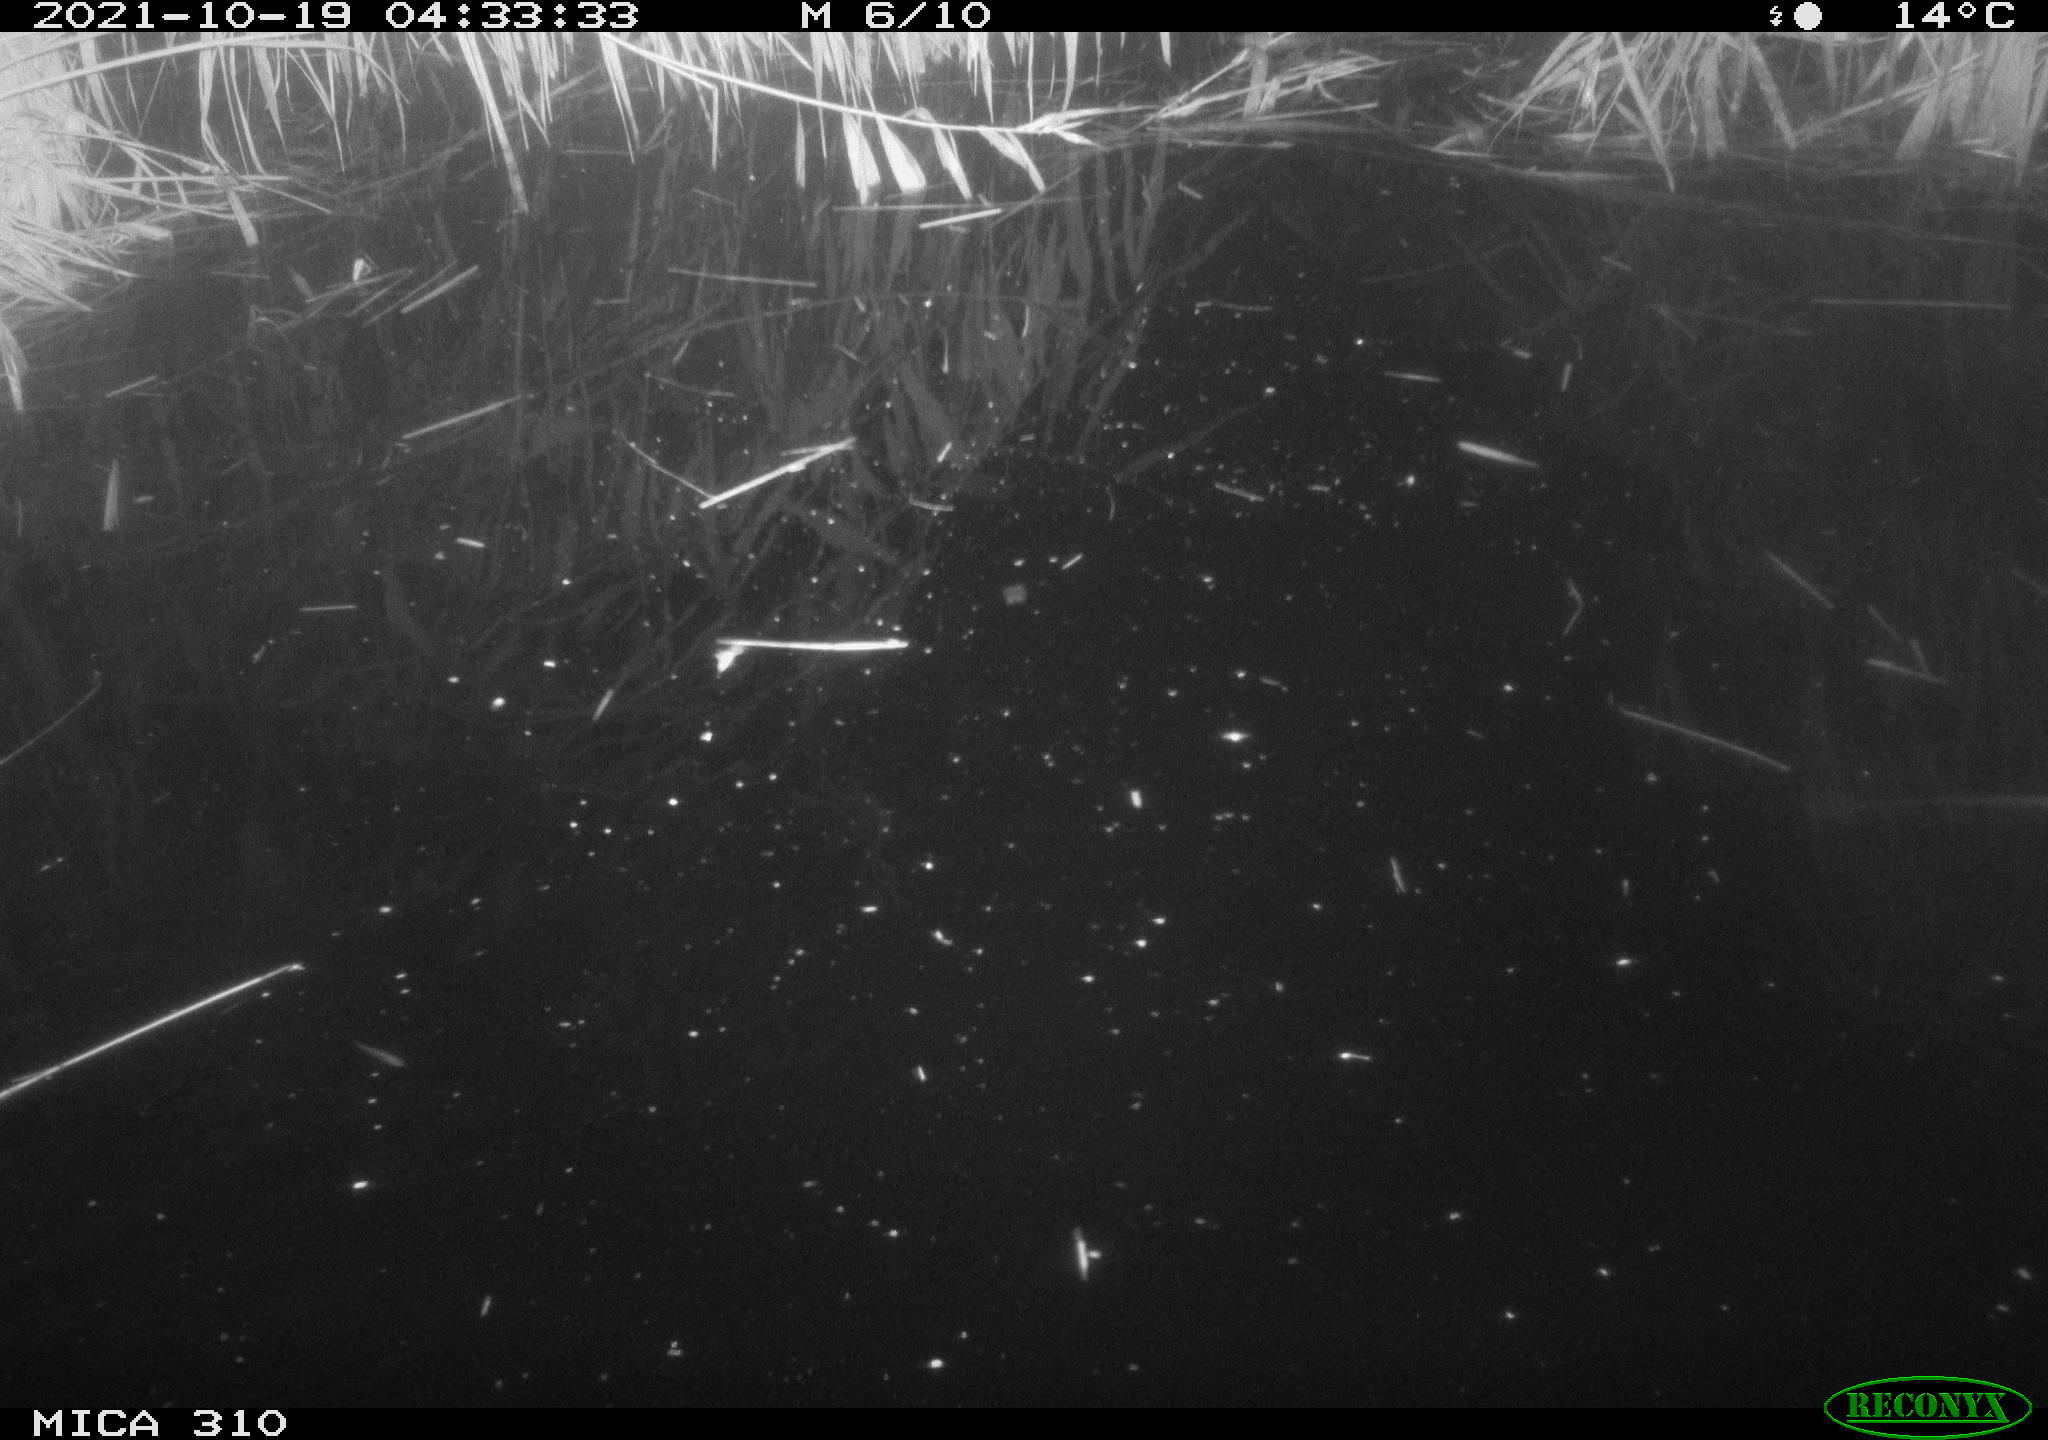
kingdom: Animalia
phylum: Chordata
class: Mammalia
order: Rodentia
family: Muridae
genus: Rattus
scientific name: Rattus norvegicus
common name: Brown rat
